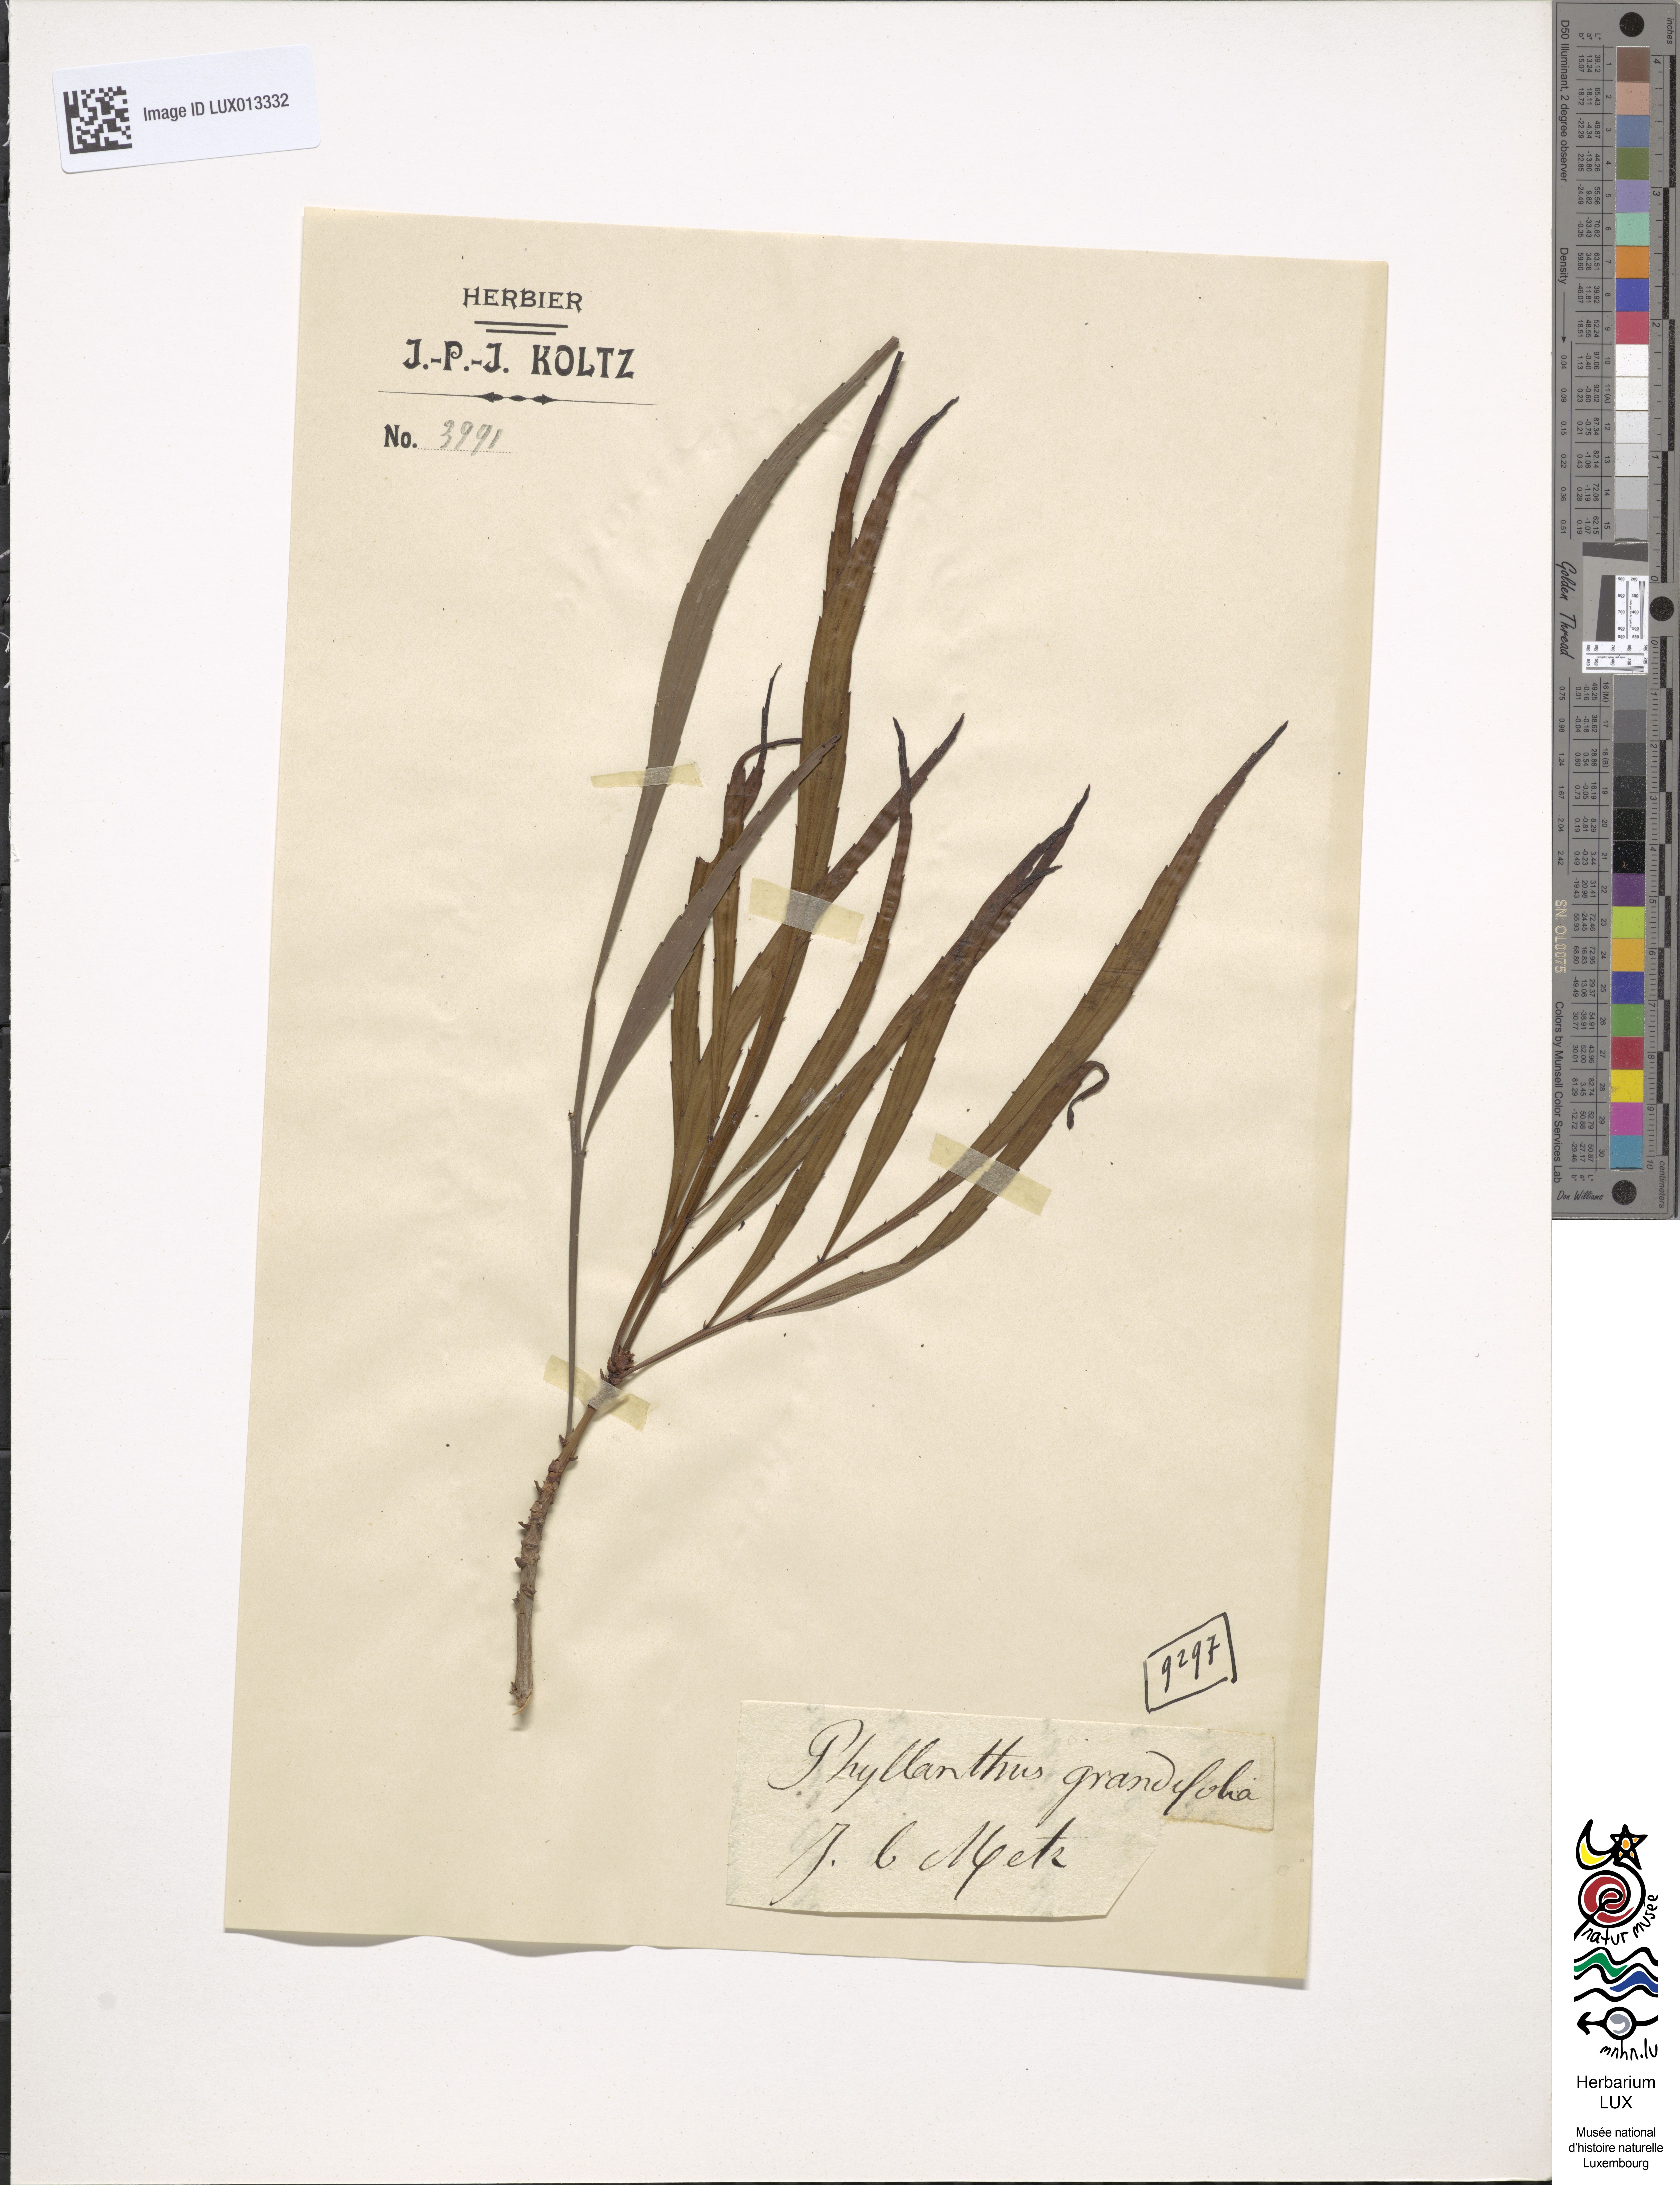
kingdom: Plantae
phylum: Tracheophyta
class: Magnoliopsida
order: Malpighiales
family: Phyllanthaceae
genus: Phyllanthus
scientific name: Phyllanthus grandifolius
